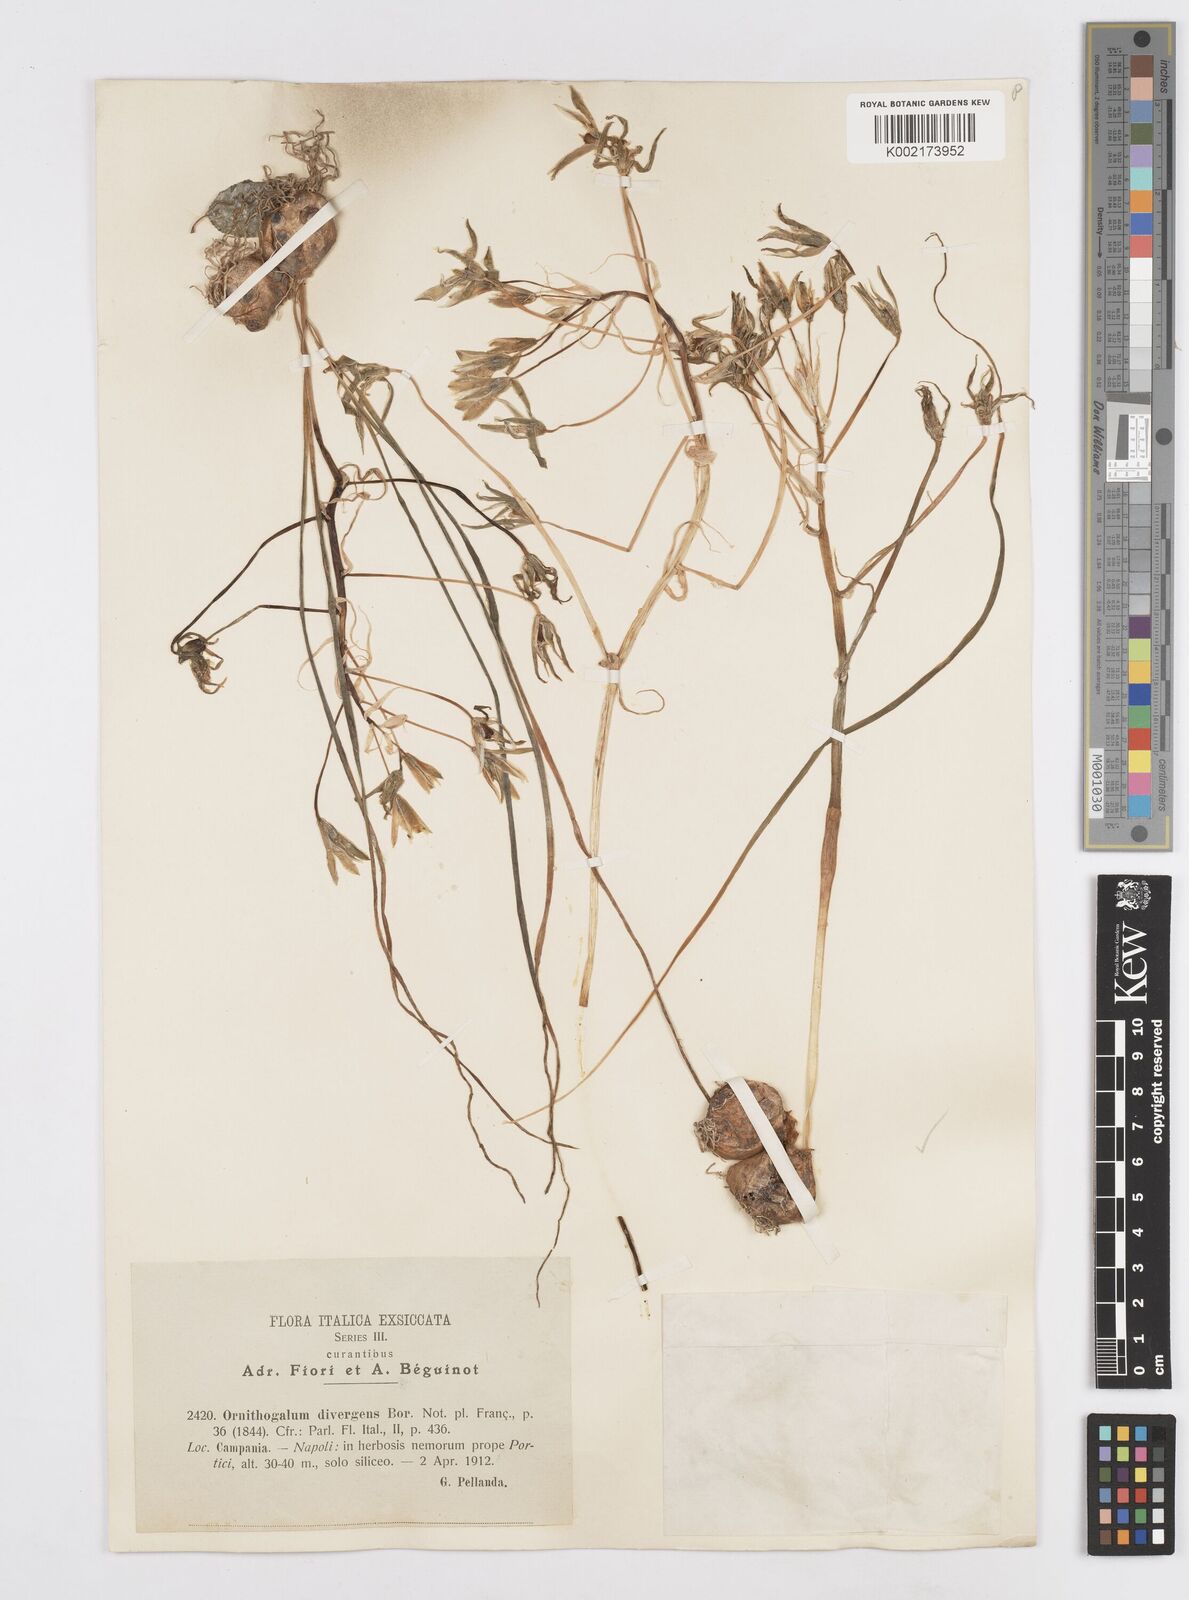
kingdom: Plantae
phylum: Tracheophyta
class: Liliopsida
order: Asparagales
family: Asparagaceae
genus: Ornithogalum
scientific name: Ornithogalum divergens
